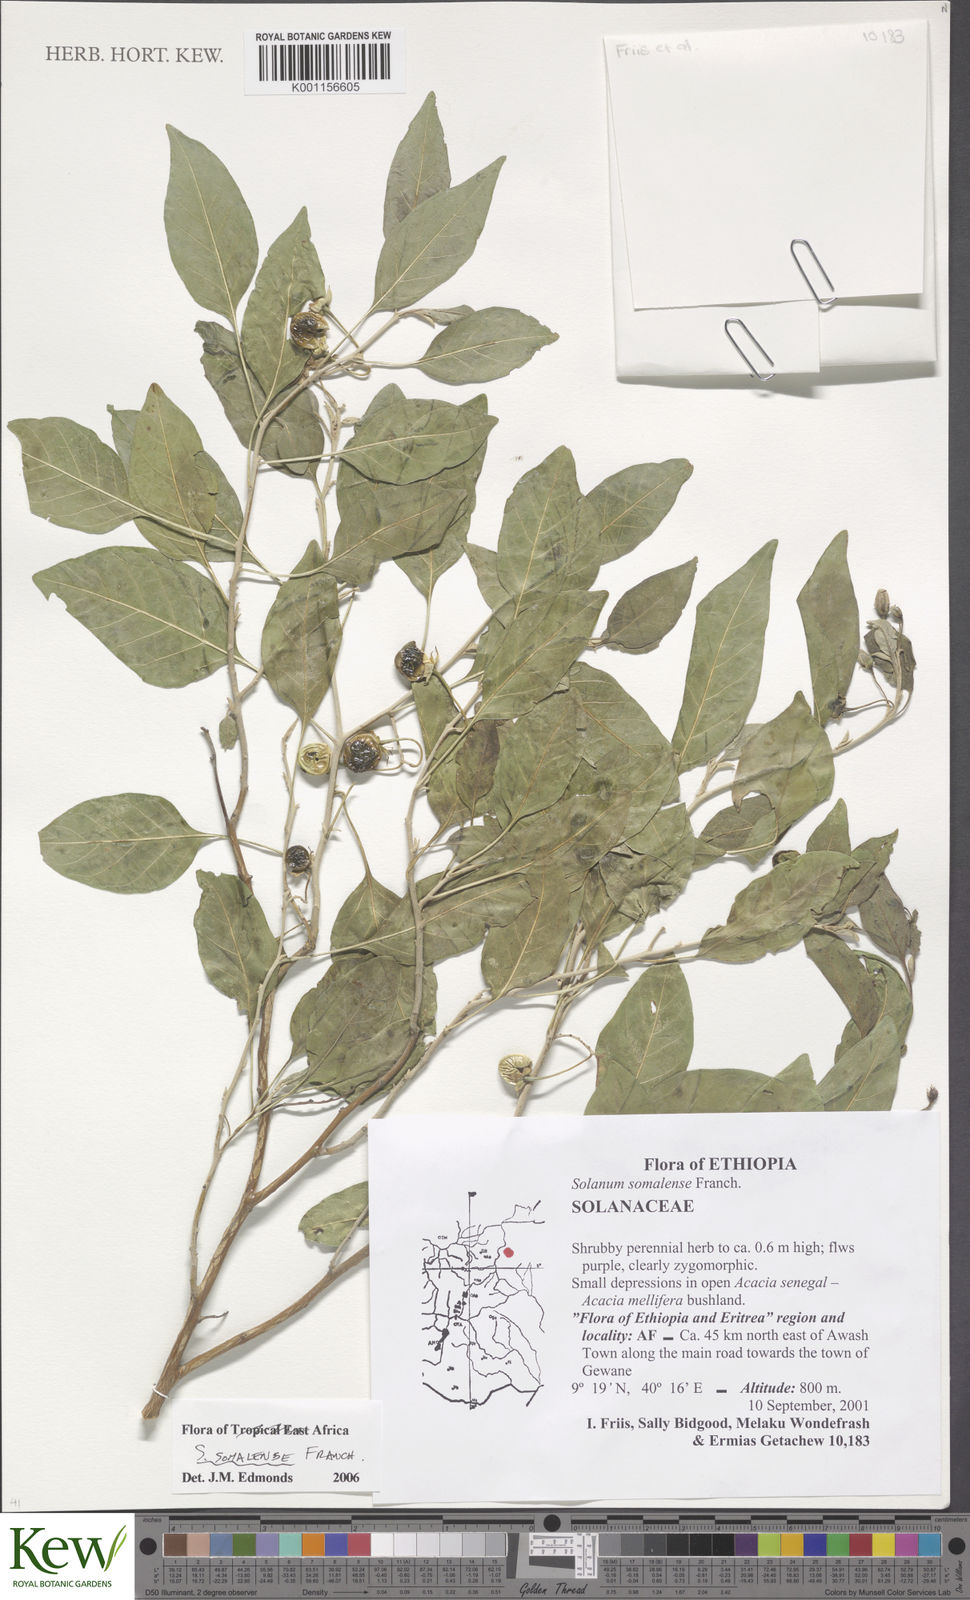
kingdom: Plantae
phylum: Tracheophyta
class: Magnoliopsida
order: Solanales
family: Solanaceae
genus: Solanum
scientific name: Solanum somalense
